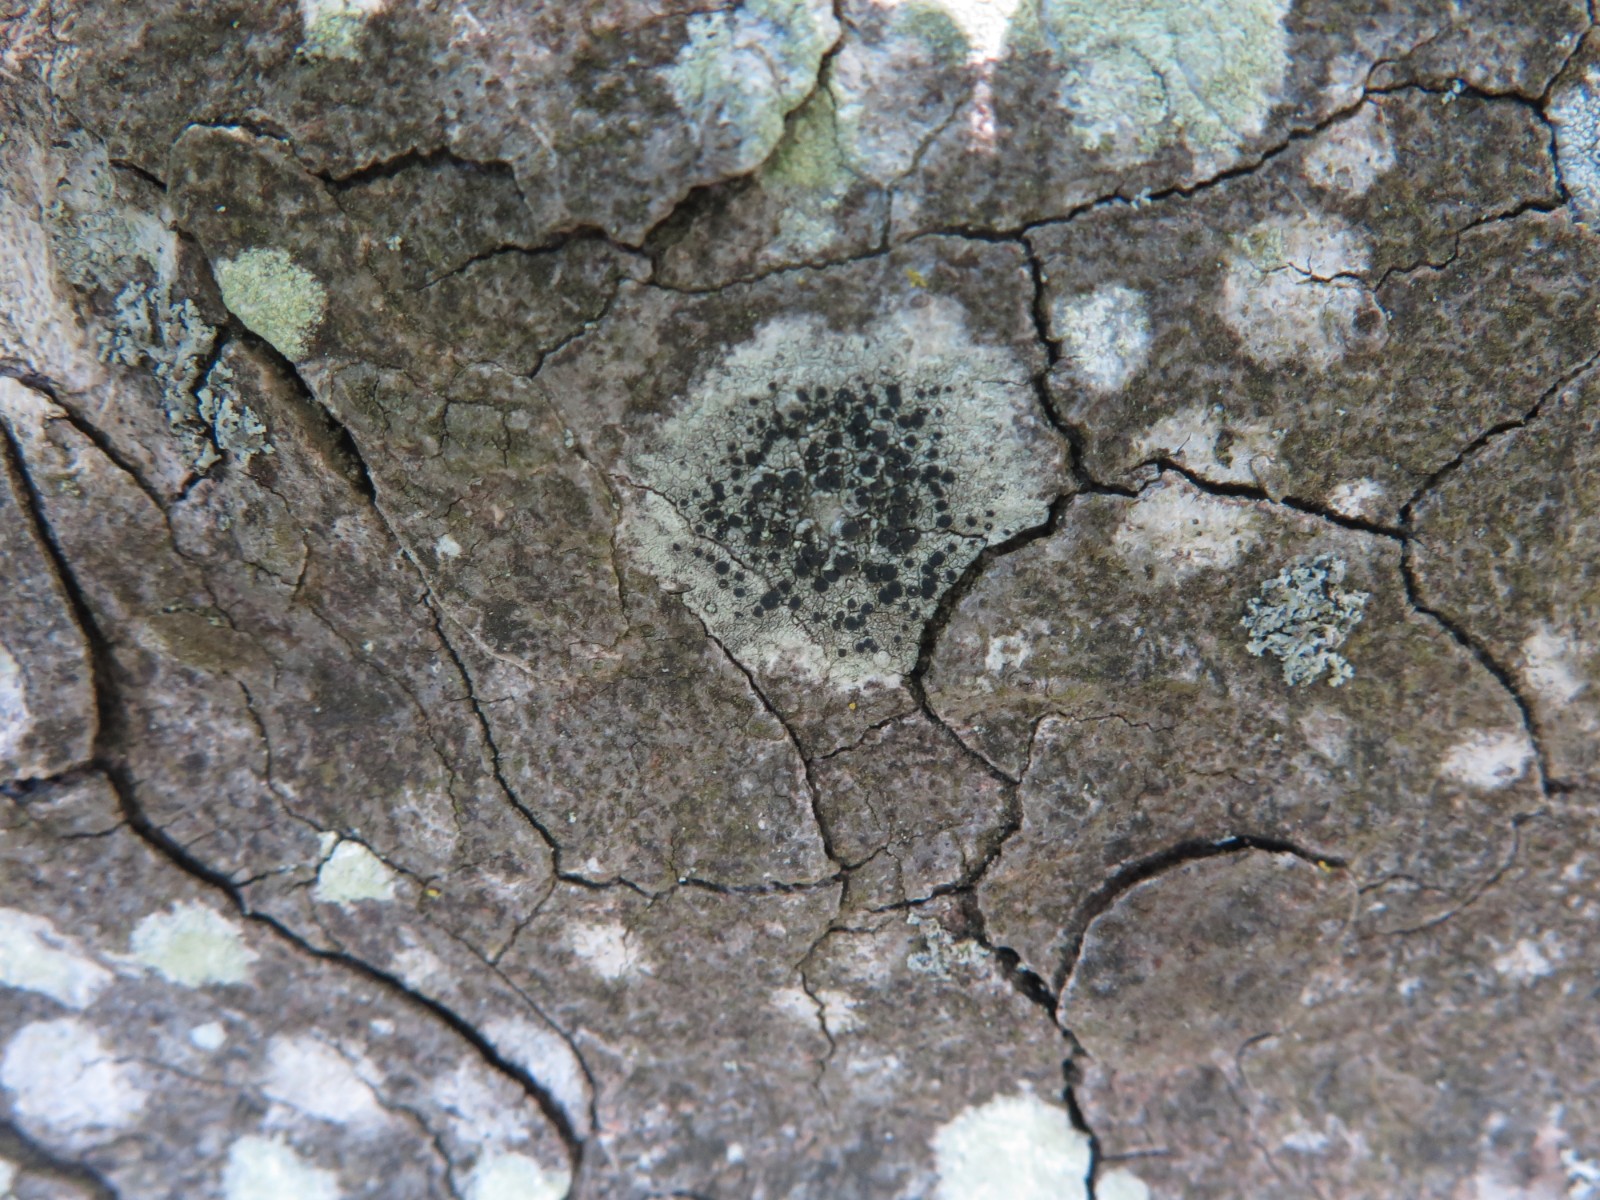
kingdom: Fungi
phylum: Ascomycota
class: Lecanoromycetes
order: Lecanorales
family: Lecanoraceae
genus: Lecidella
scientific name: Lecidella elaeochroma
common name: grågrøn skivelav
